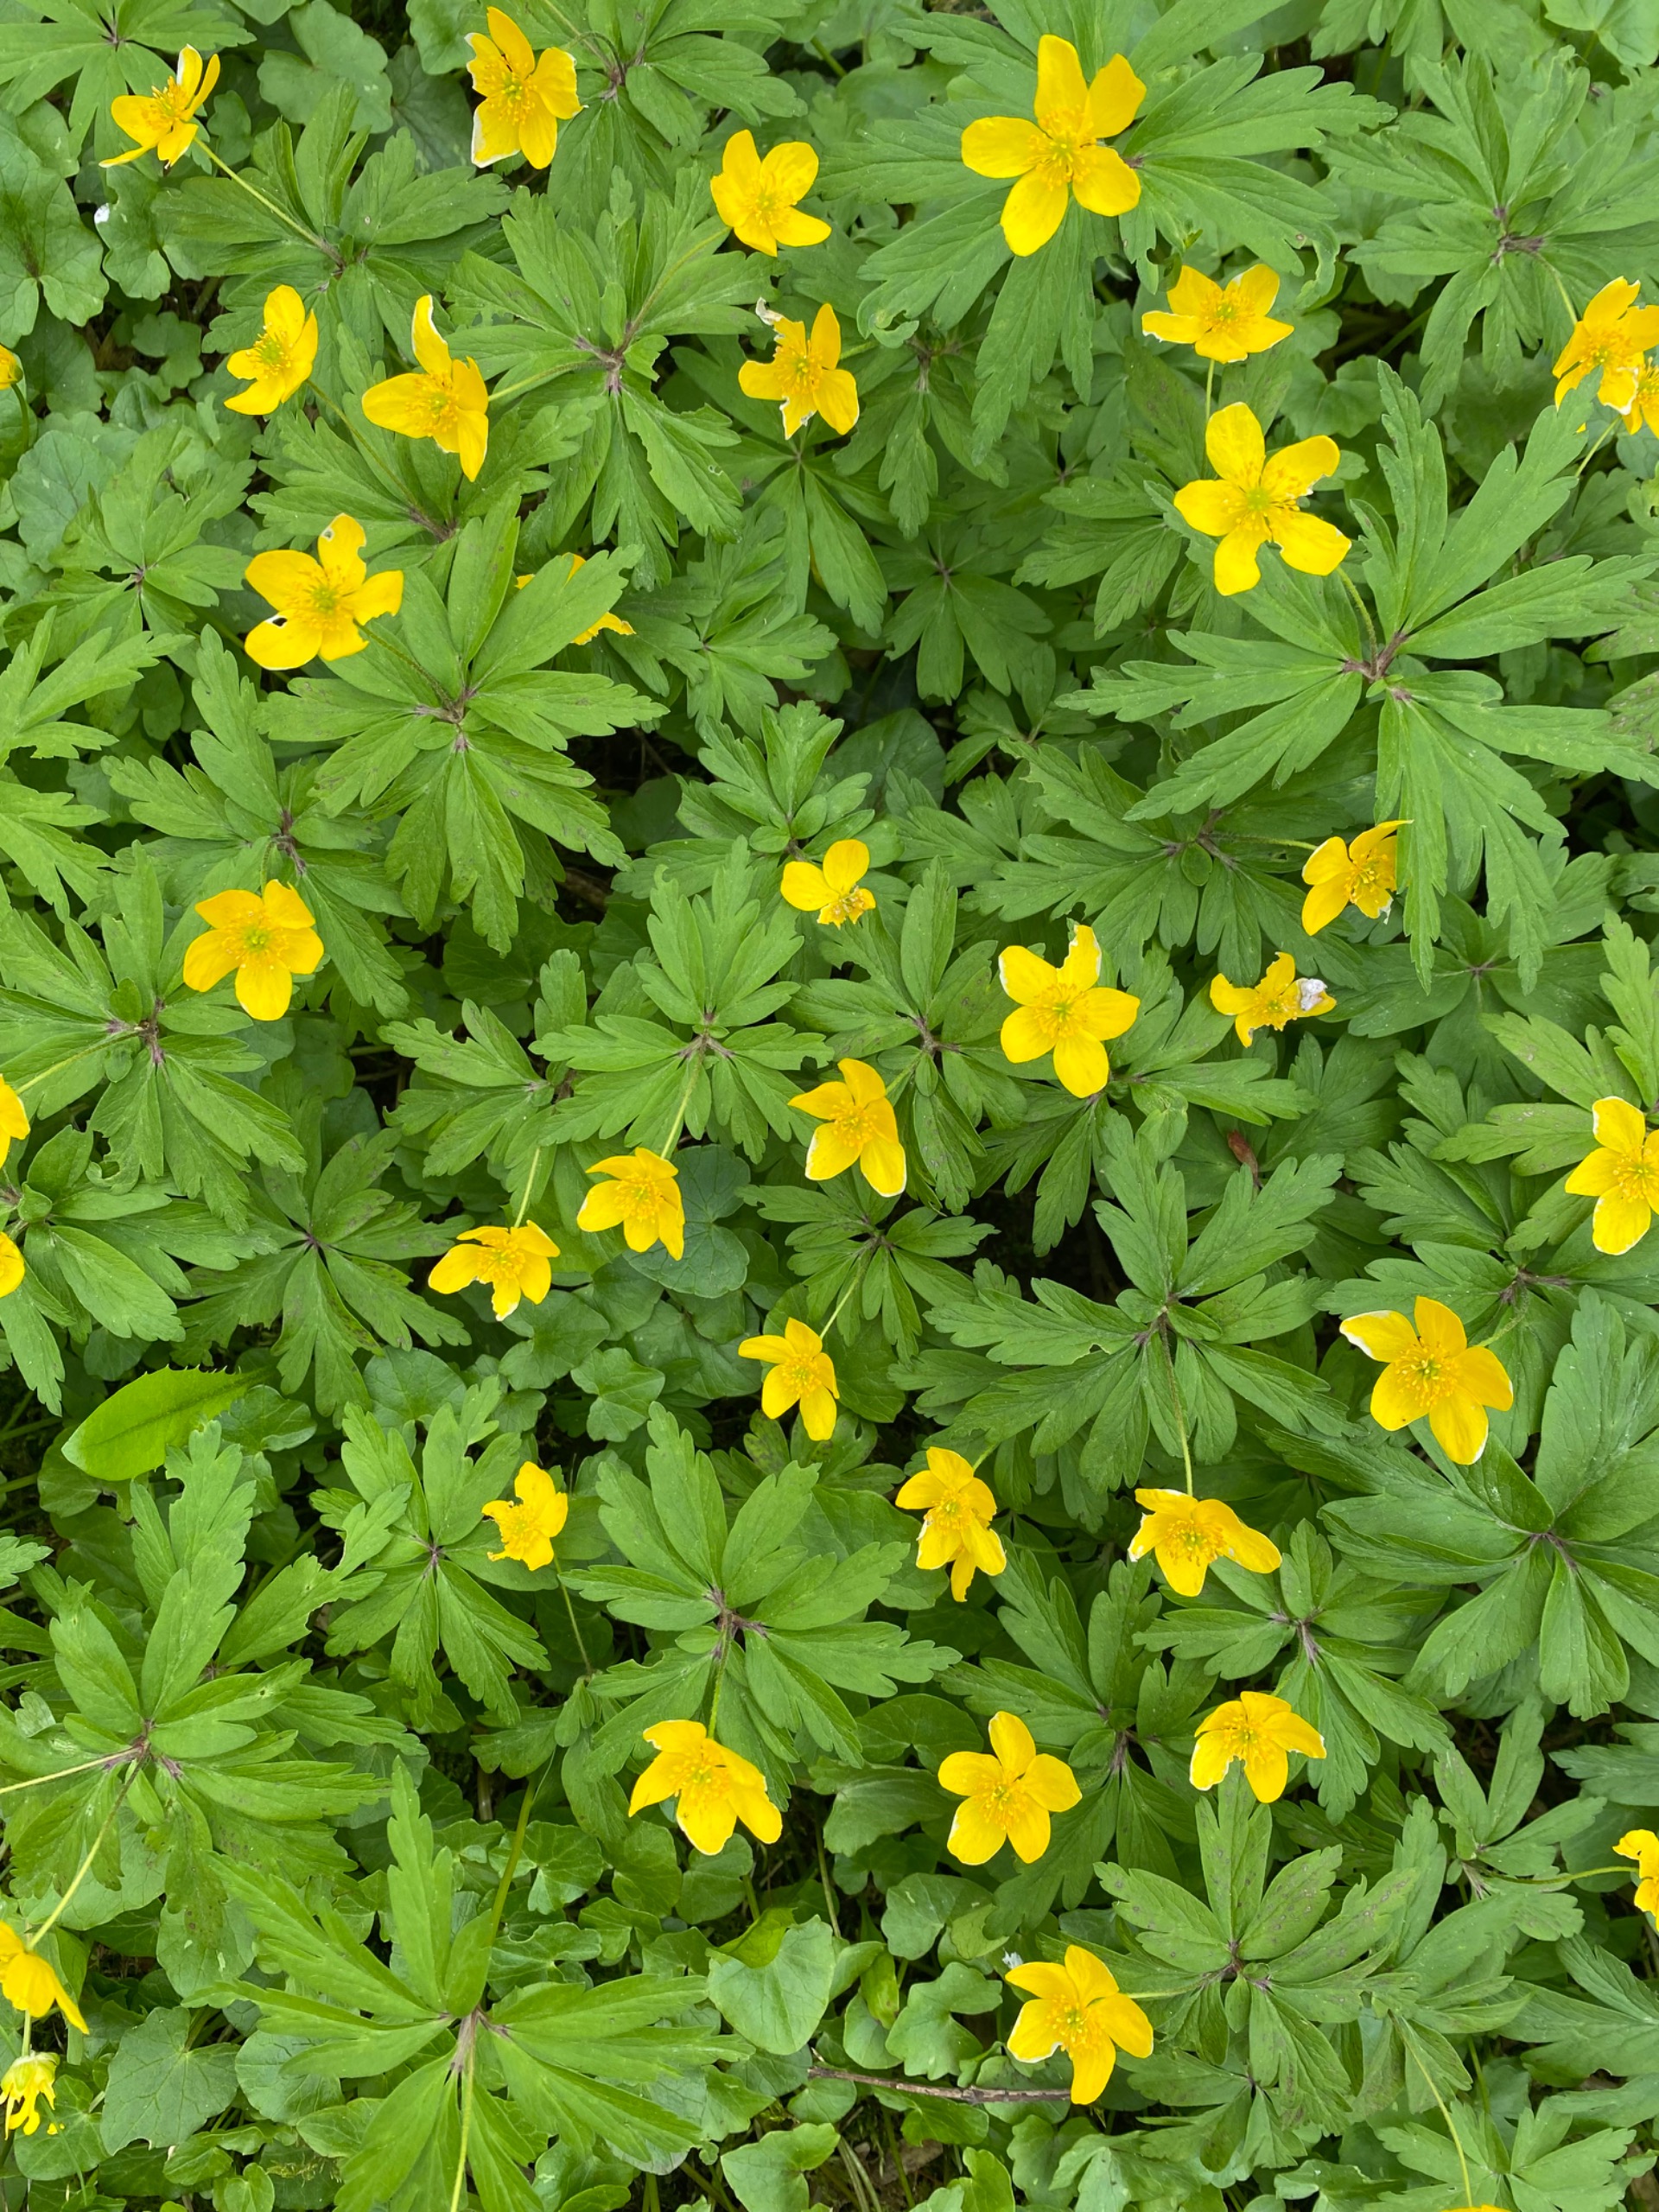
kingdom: Plantae
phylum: Tracheophyta
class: Magnoliopsida
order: Ranunculales
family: Ranunculaceae
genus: Anemone
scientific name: Anemone ranunculoides
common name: Gul anemone
